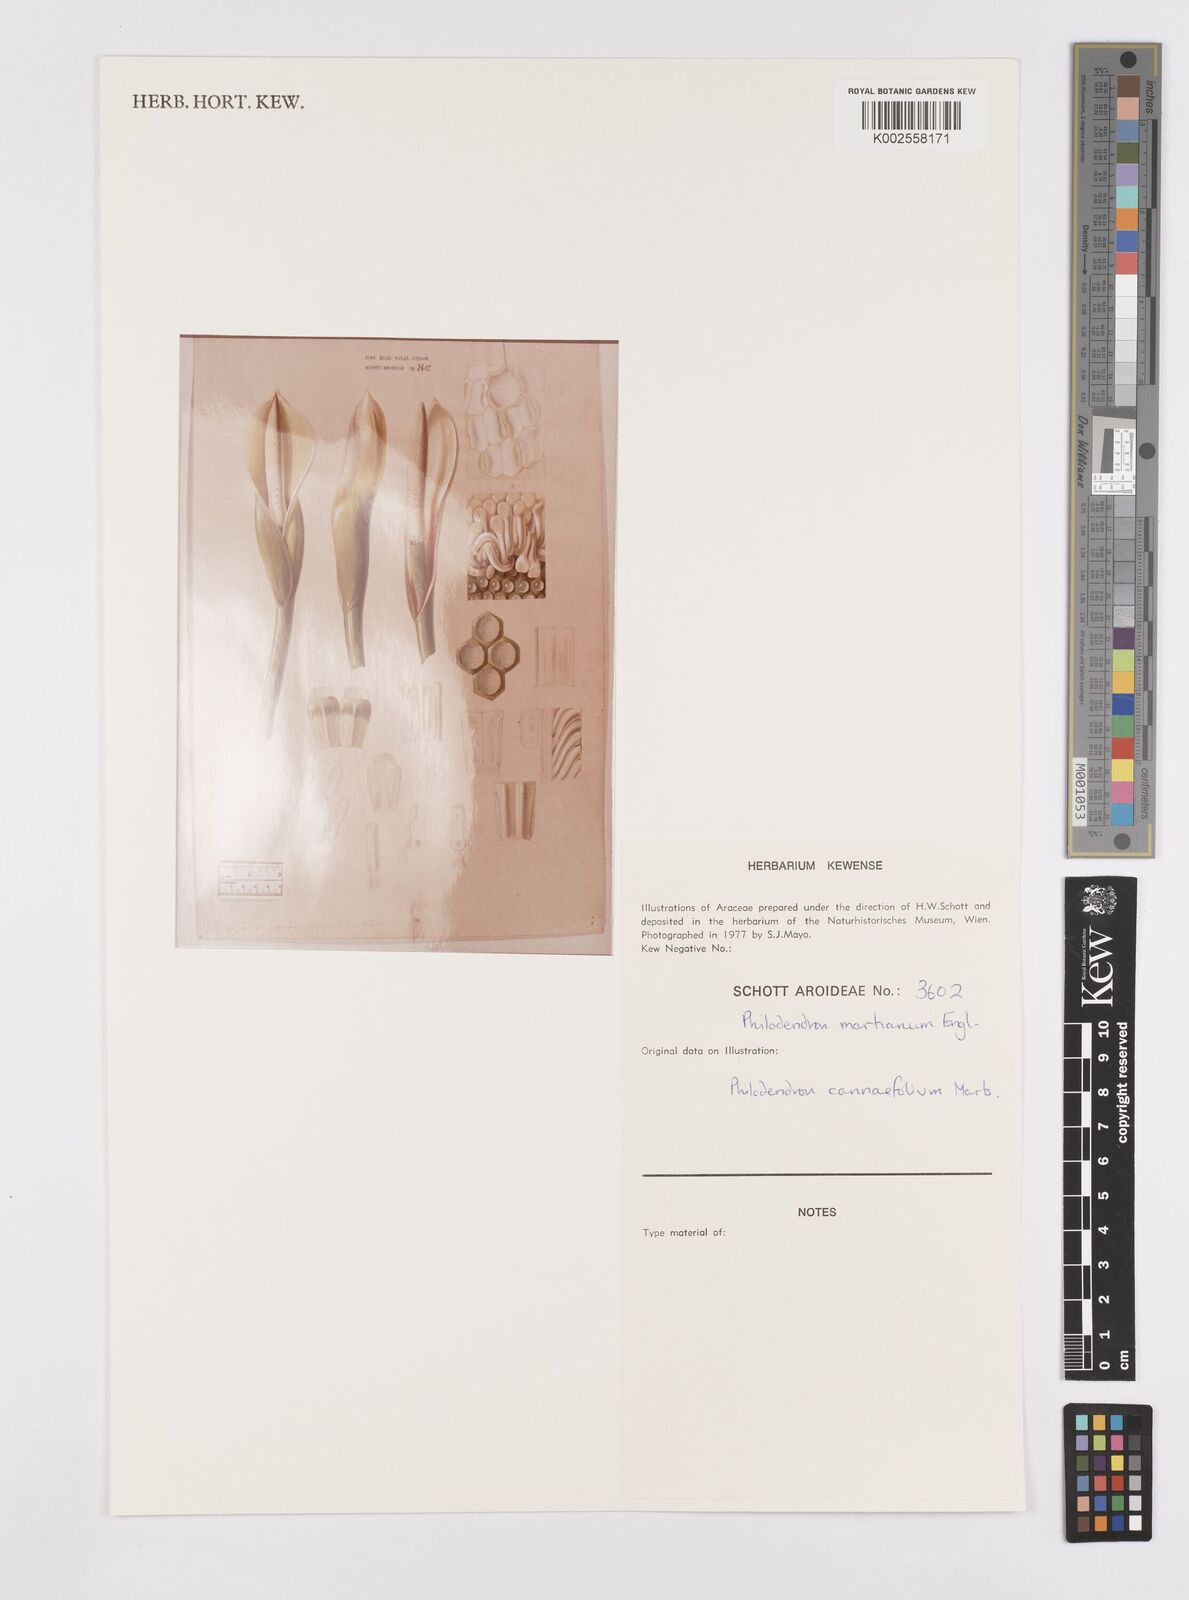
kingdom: Plantae
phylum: Tracheophyta
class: Liliopsida
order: Alismatales
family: Araceae
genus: Philodendron
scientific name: Philodendron martianum
